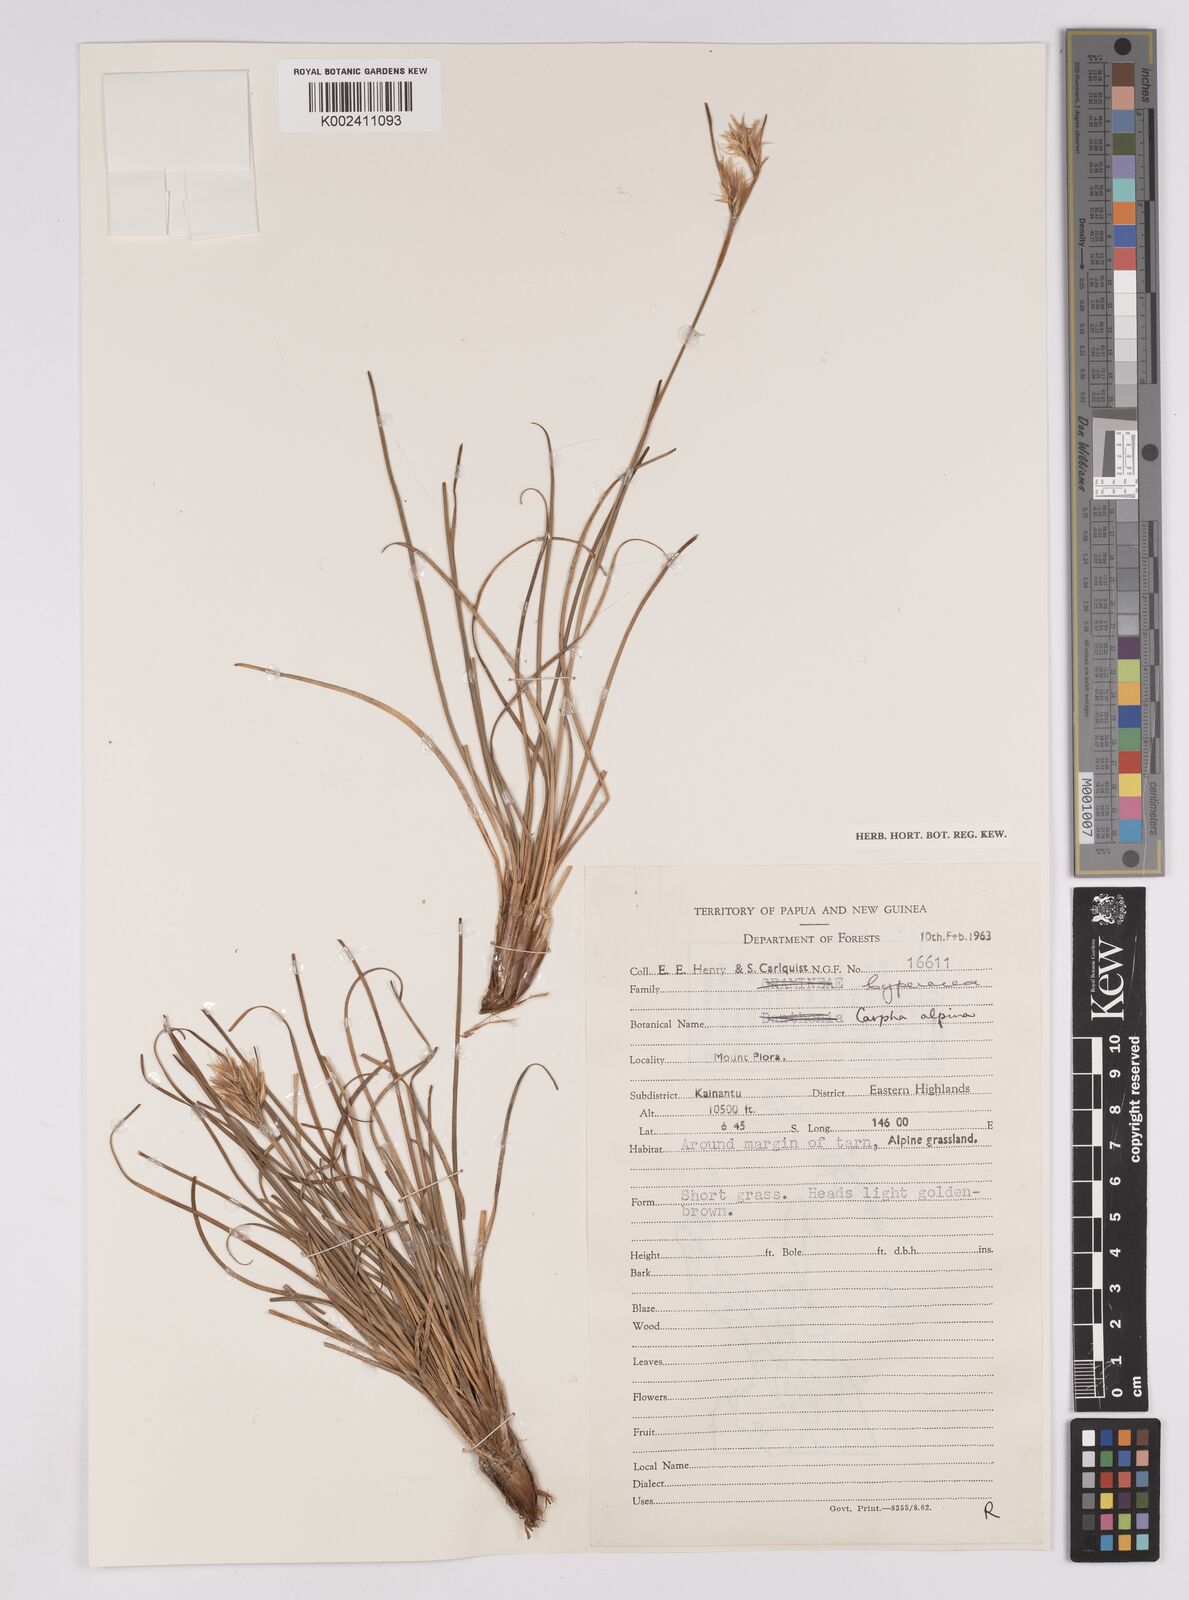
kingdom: Plantae
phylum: Tracheophyta
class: Liliopsida
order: Poales
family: Cyperaceae
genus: Carpha
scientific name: Carpha alpina
